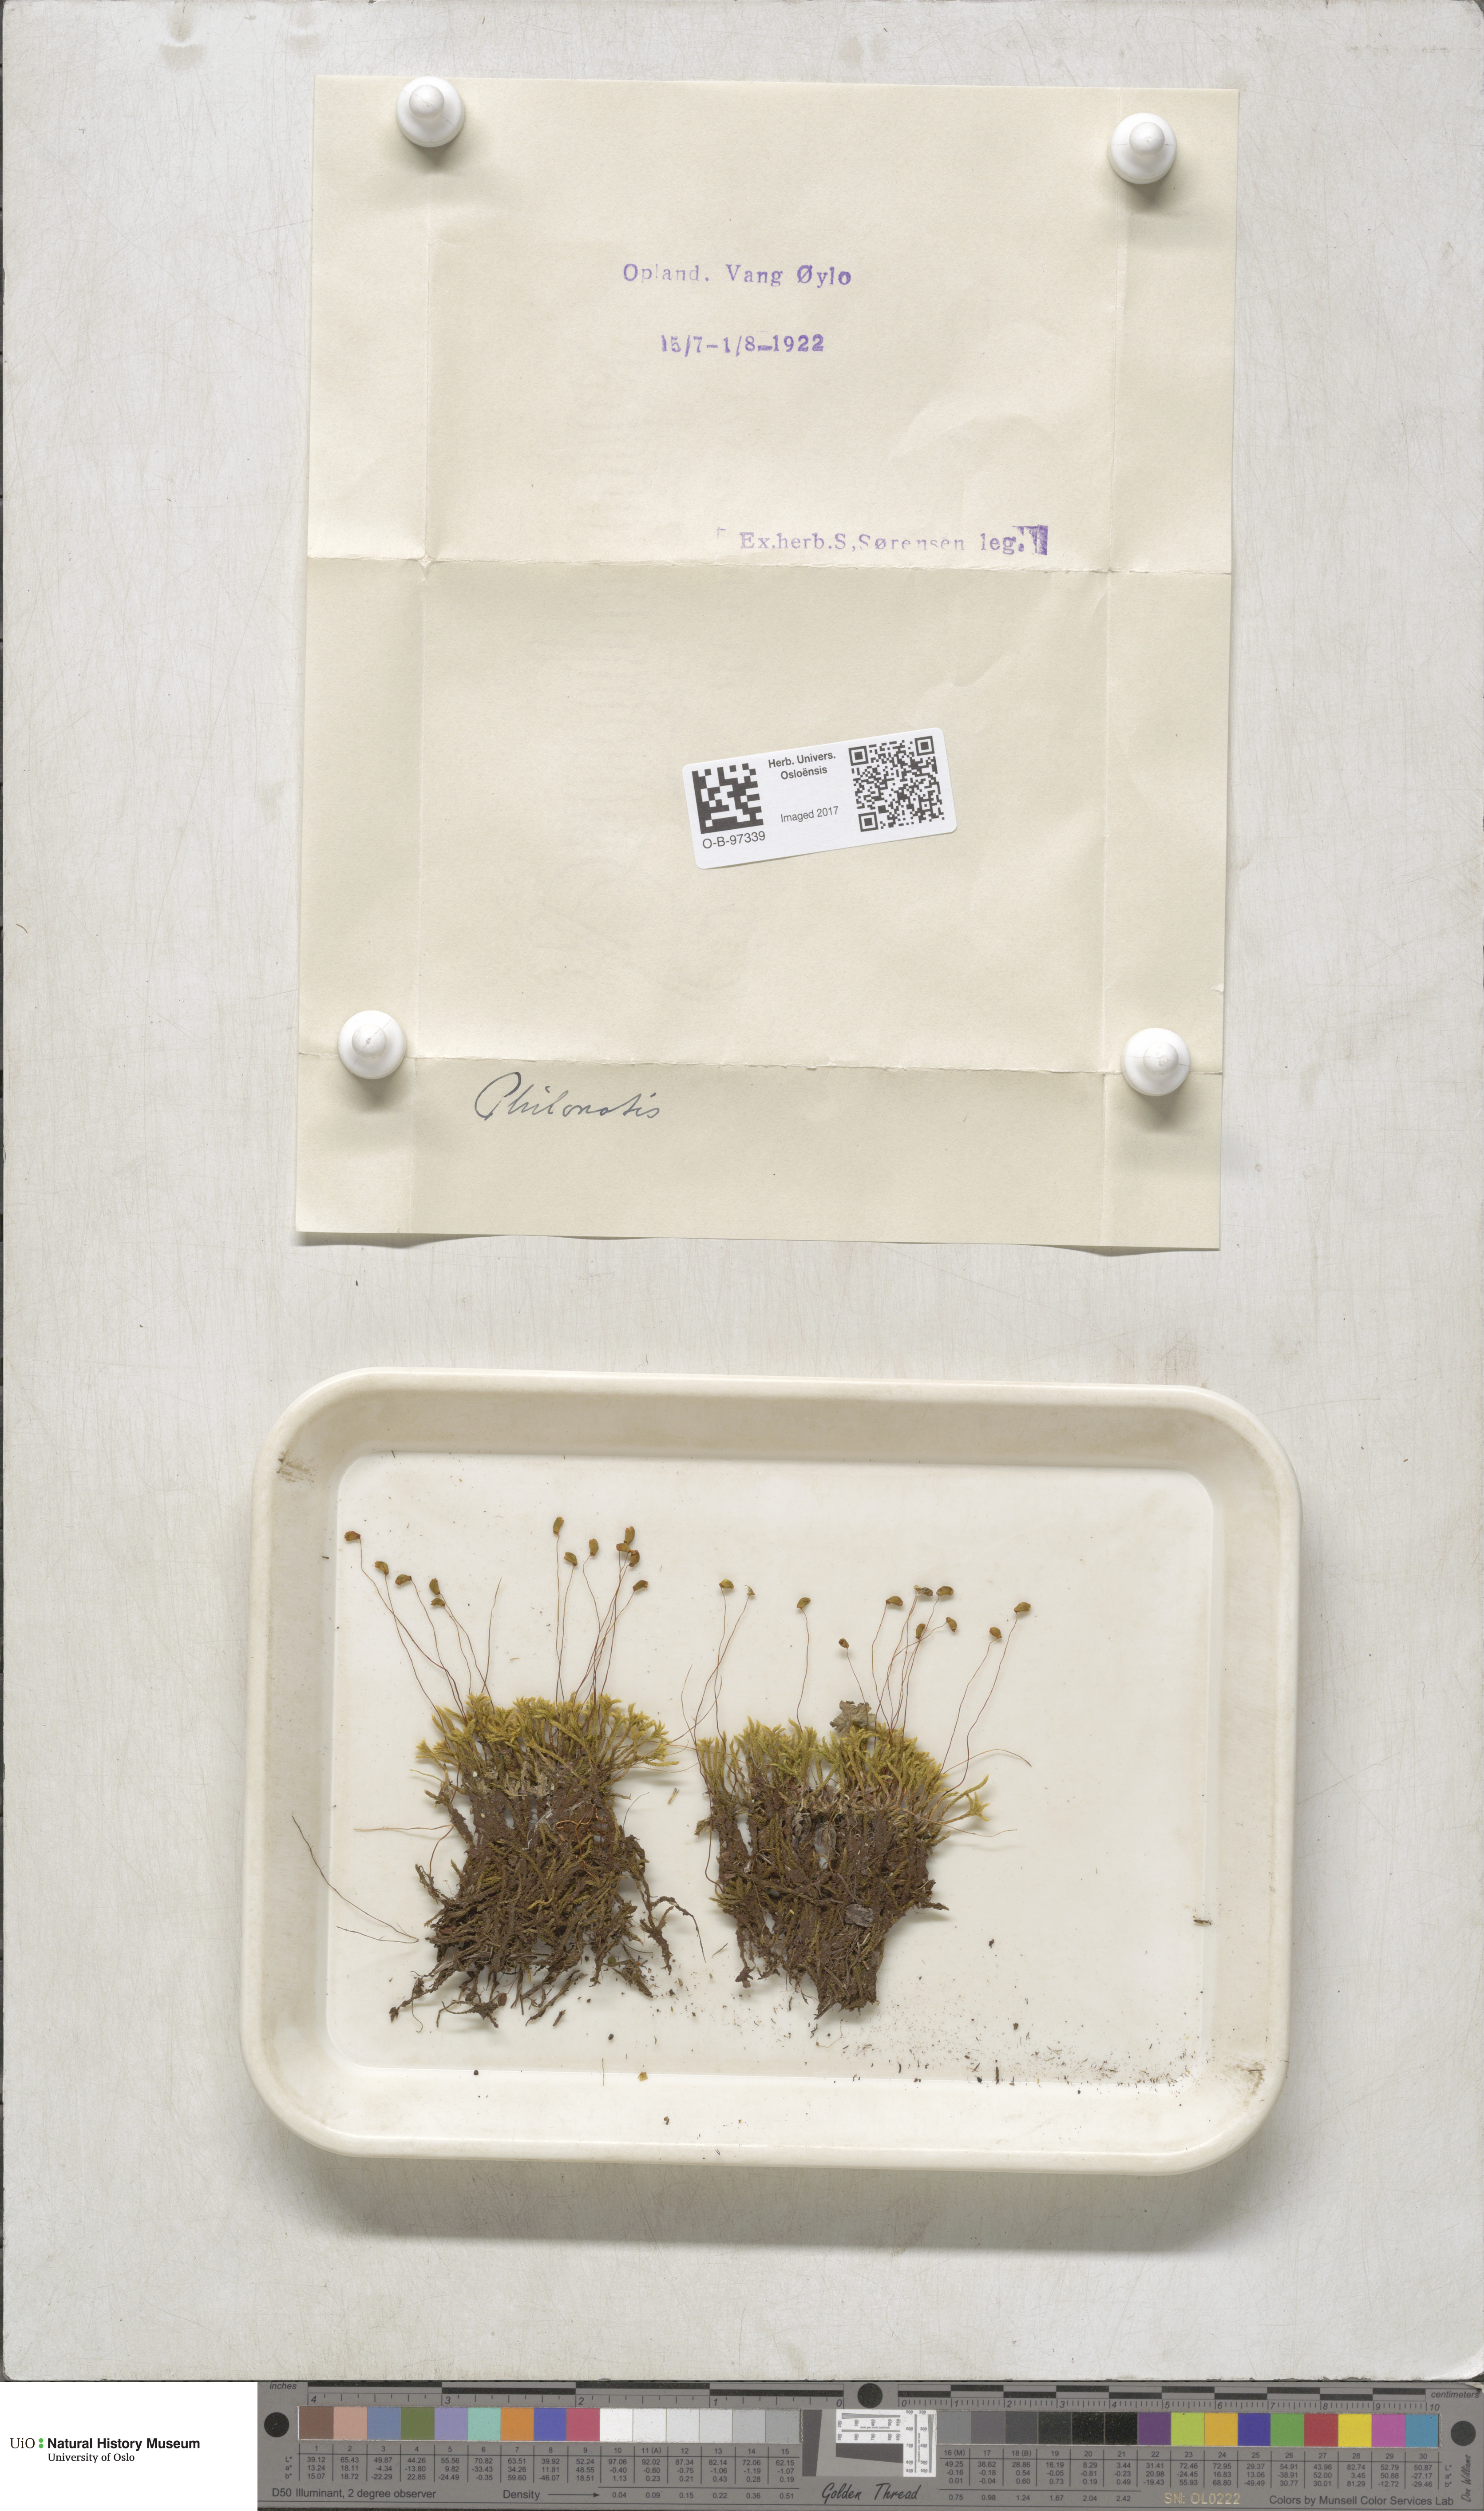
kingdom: Plantae
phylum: Bryophyta
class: Bryopsida
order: Bartramiales
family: Bartramiaceae
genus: Philonotis
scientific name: Philonotis
